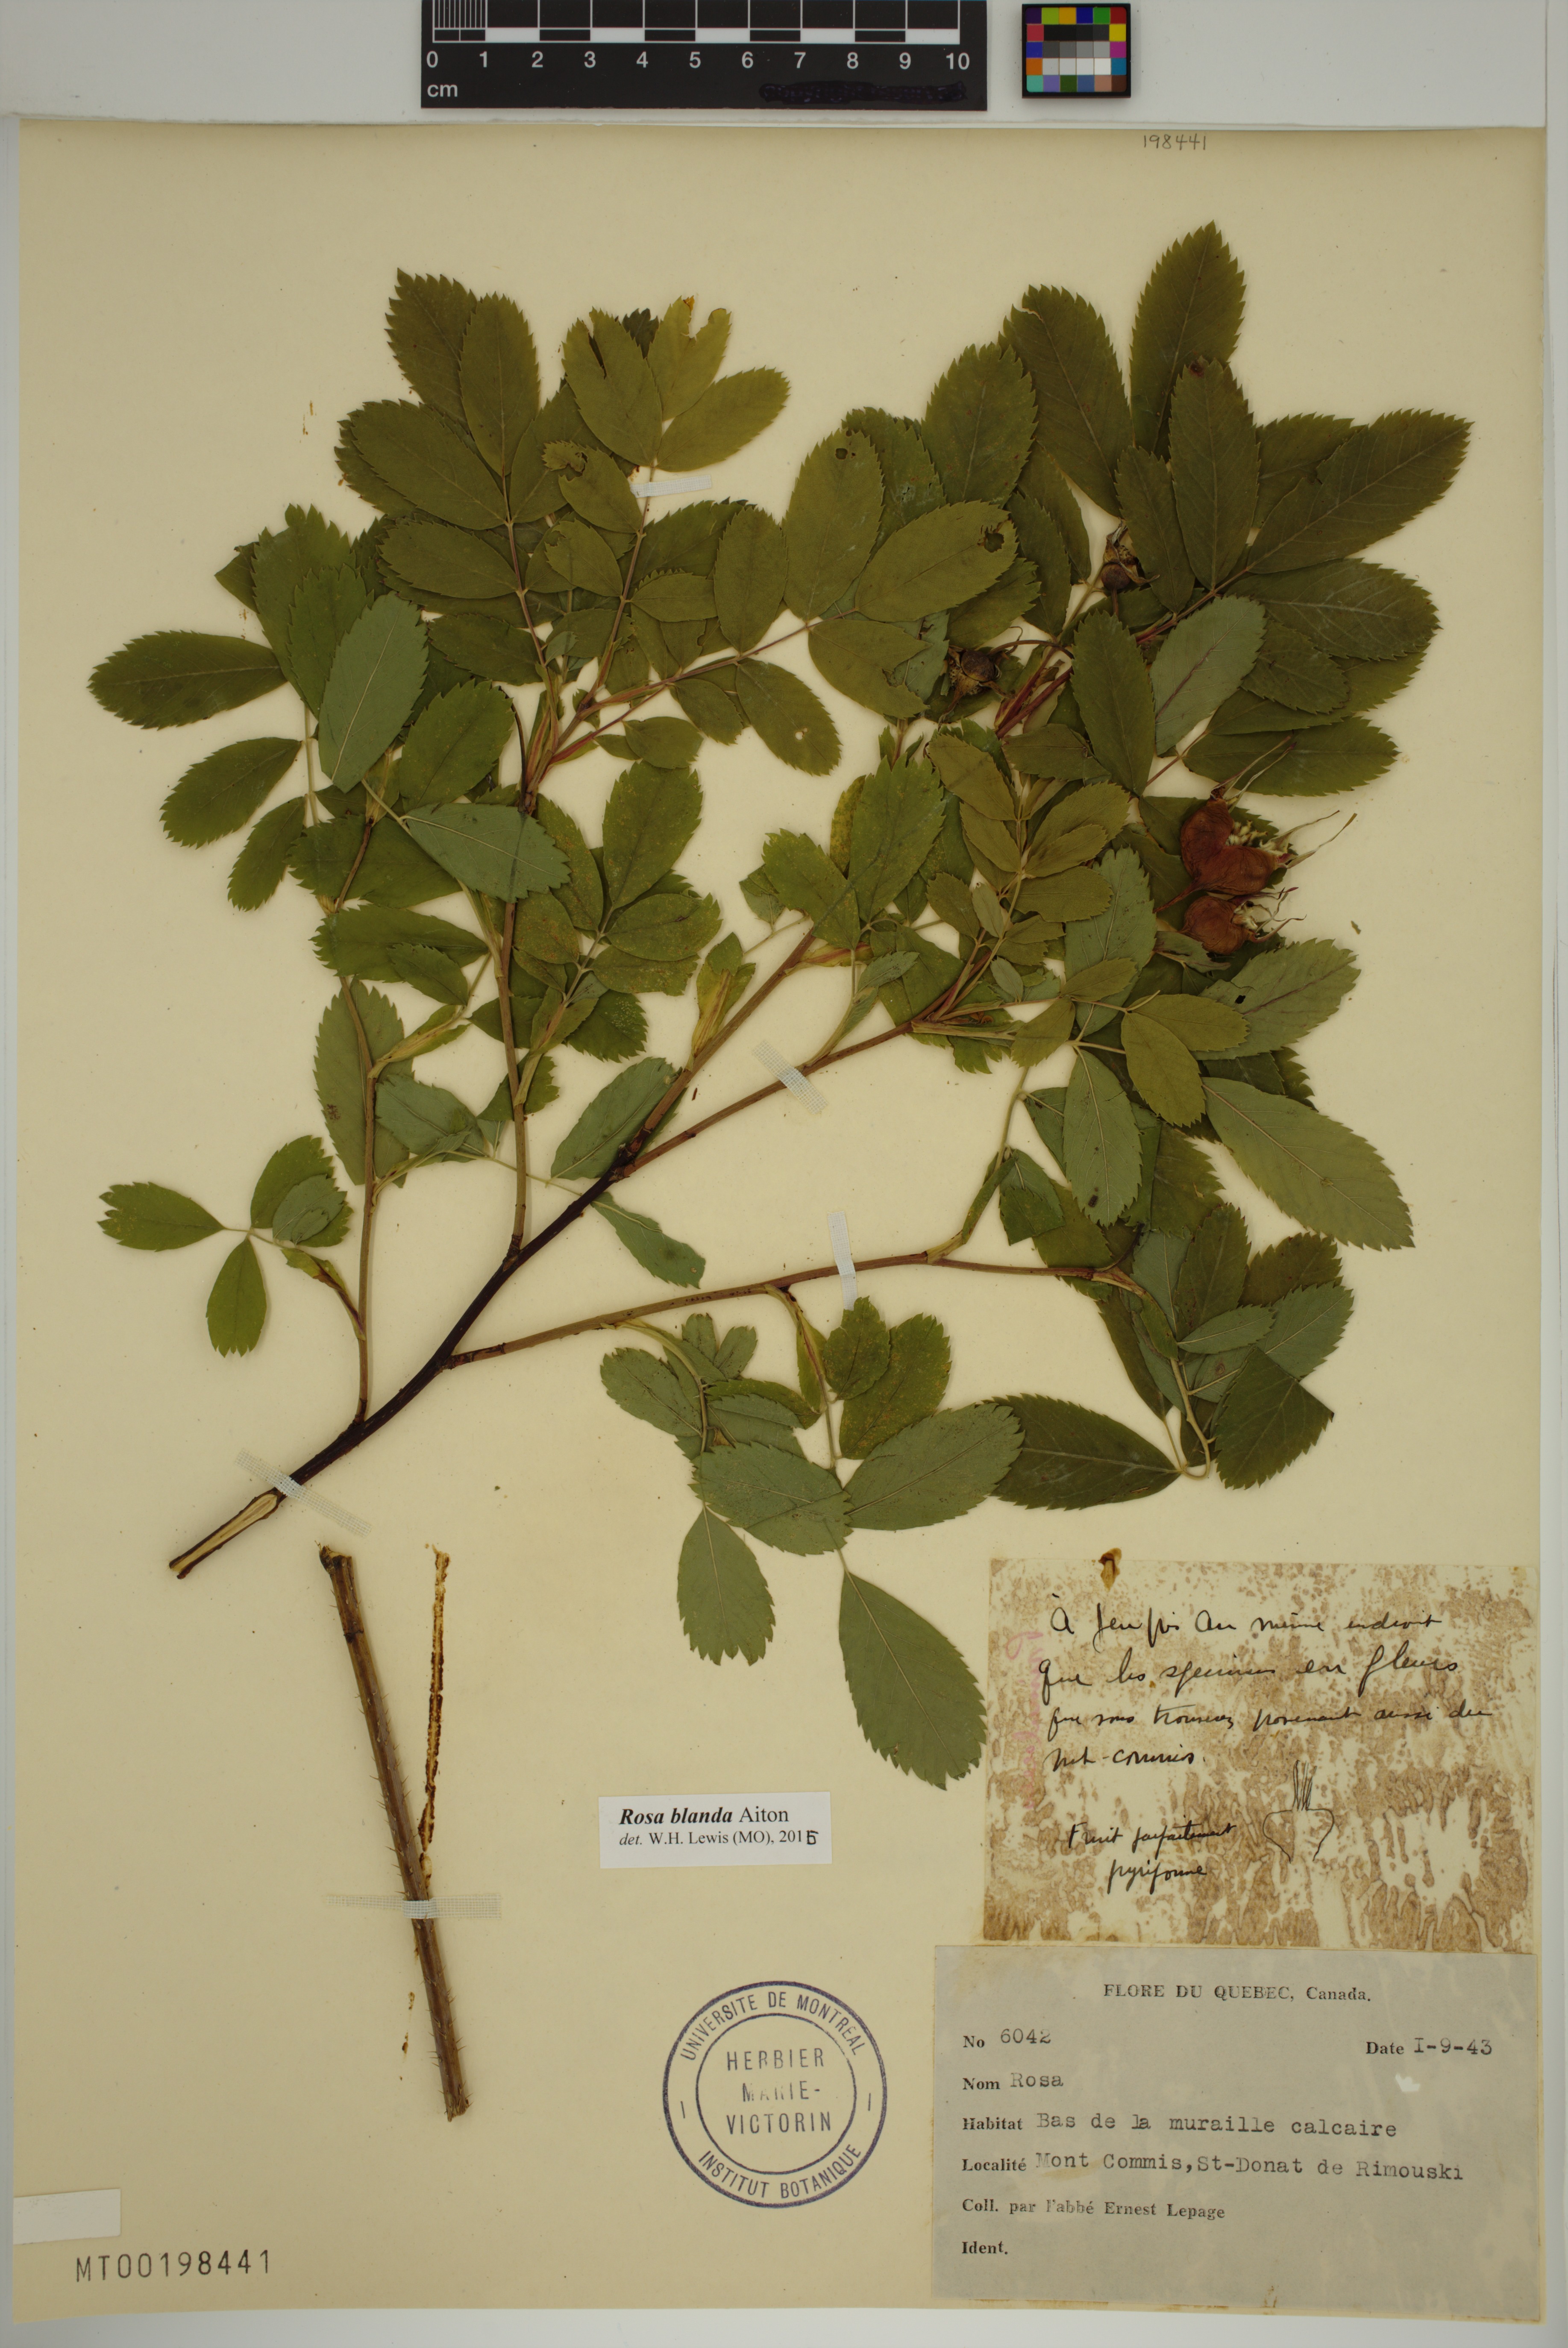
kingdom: Plantae
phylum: Tracheophyta
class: Magnoliopsida
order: Rosales
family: Rosaceae
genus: Rosa
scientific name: Rosa blanda
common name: Smooth rose
